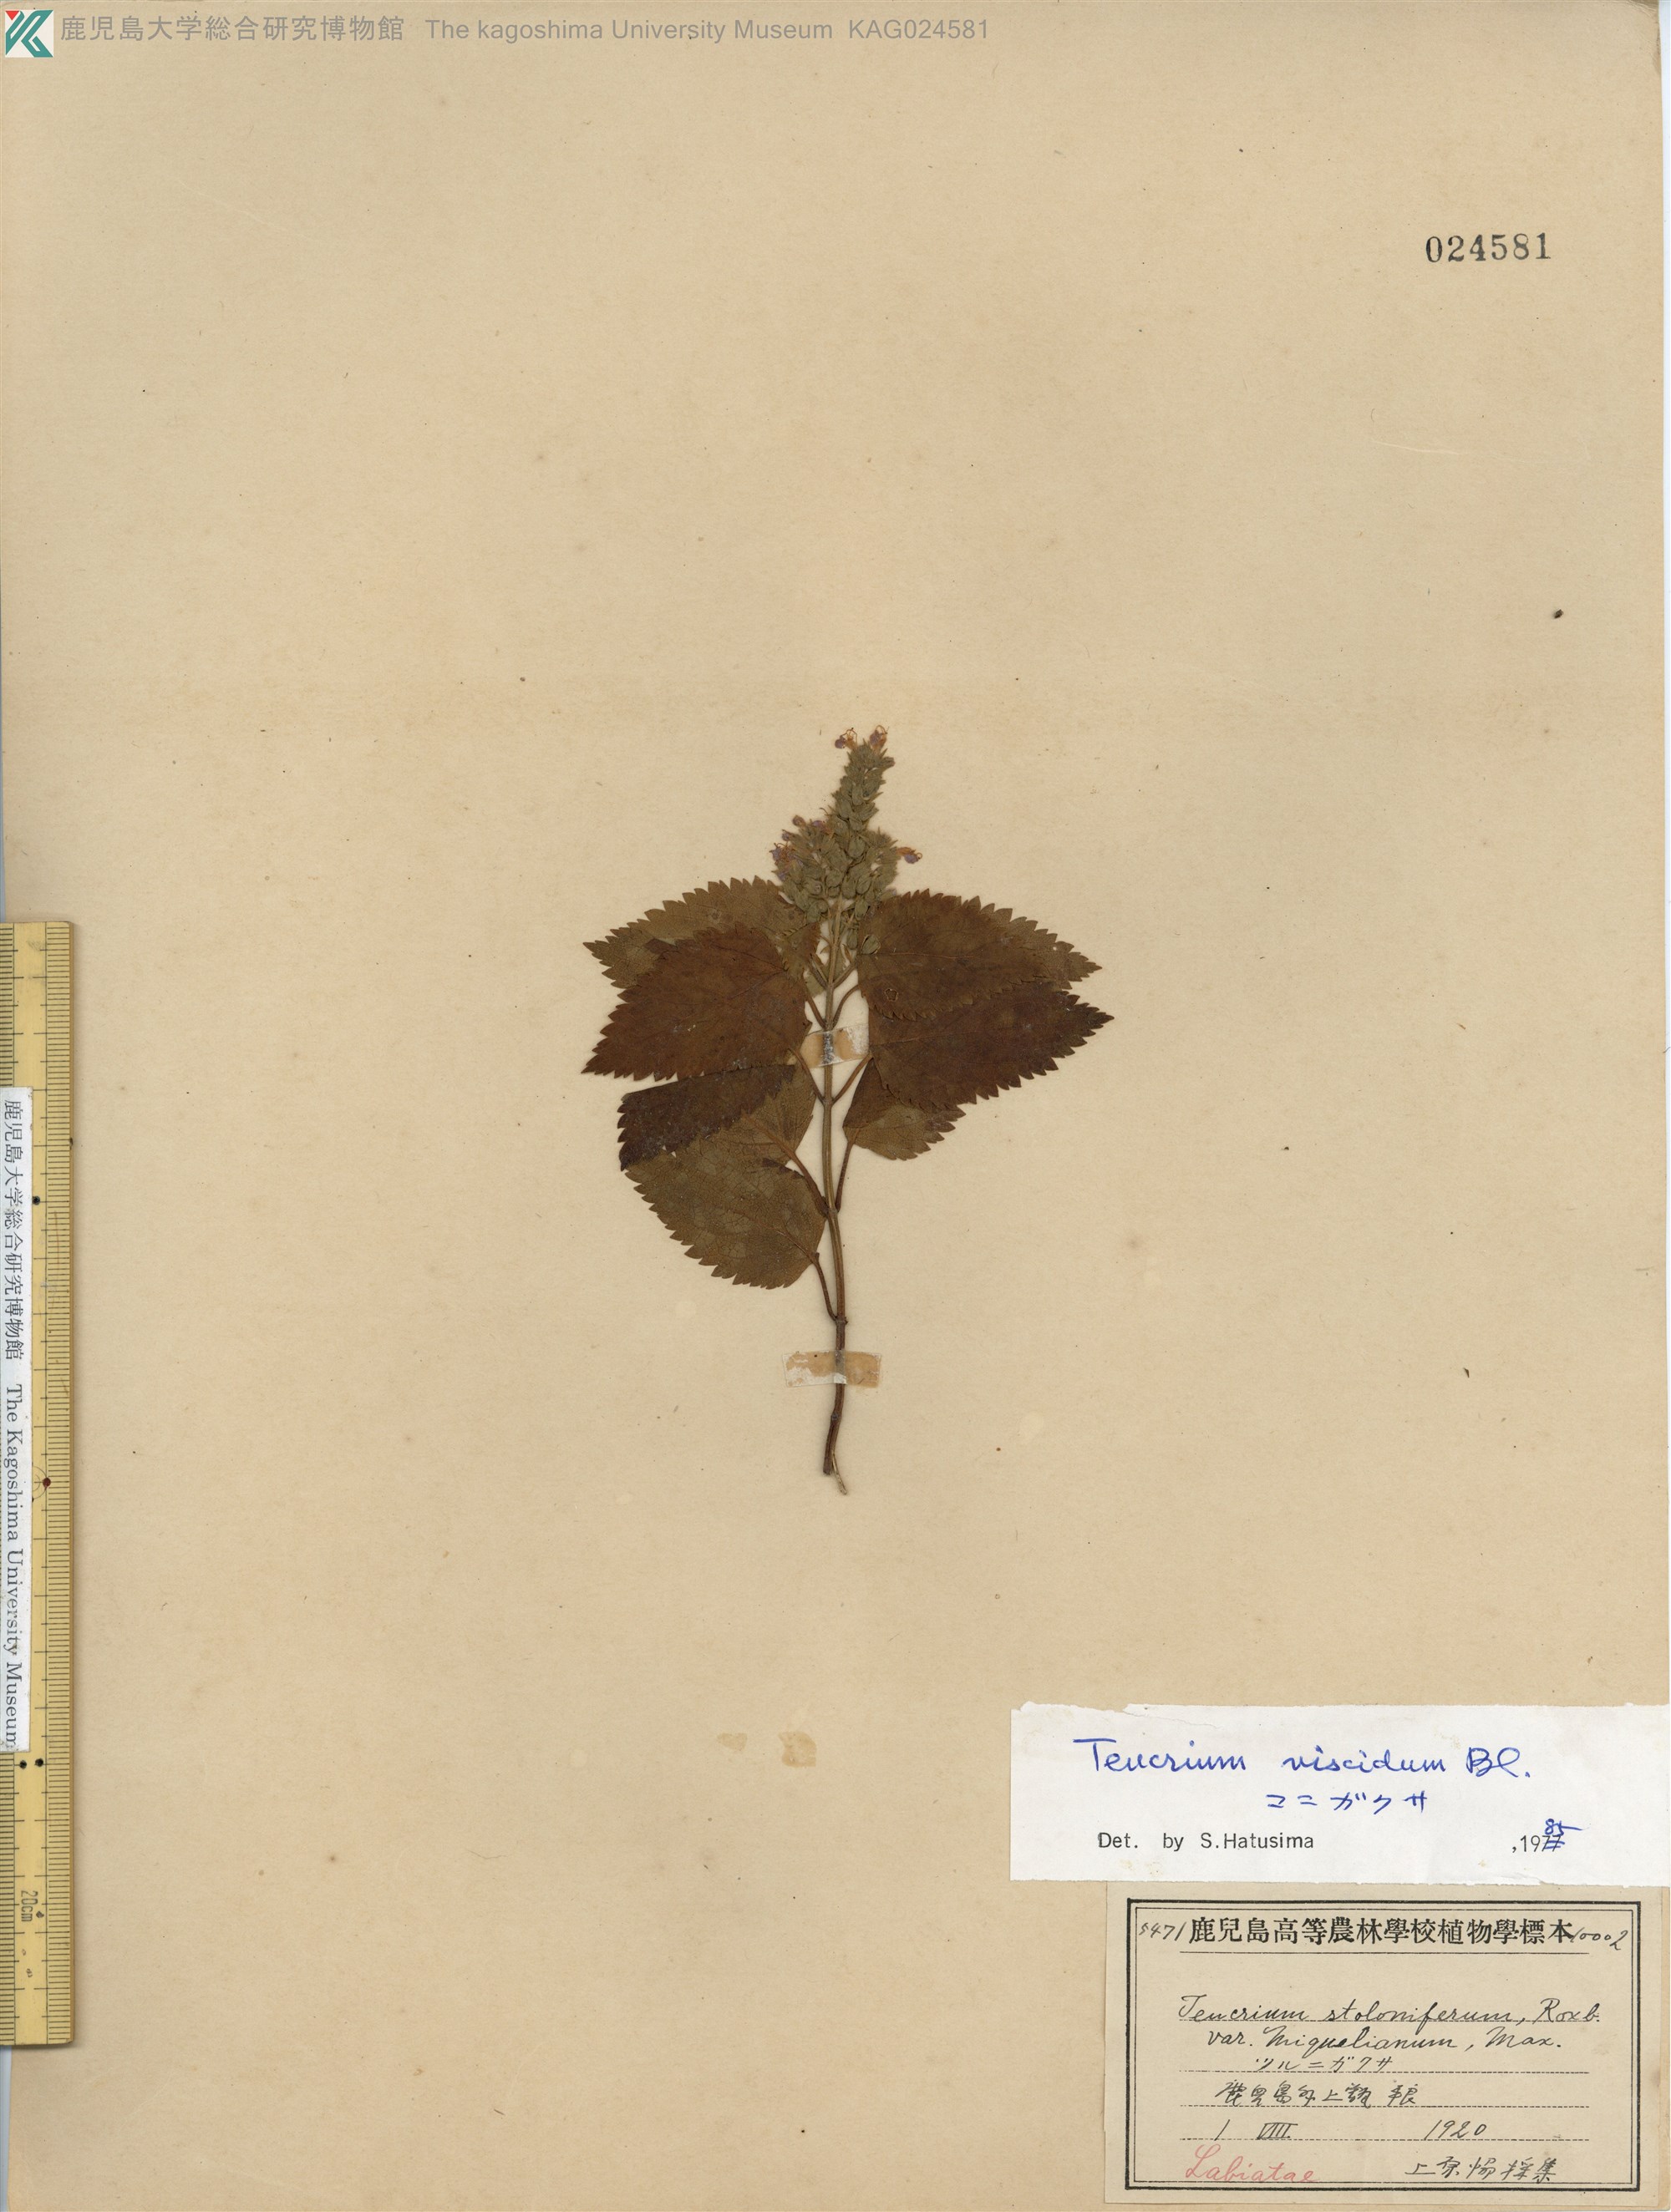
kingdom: Plantae
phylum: Tracheophyta
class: Magnoliopsida
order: Lamiales
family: Lamiaceae
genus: Teucrium
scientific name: Teucrium viscidum
